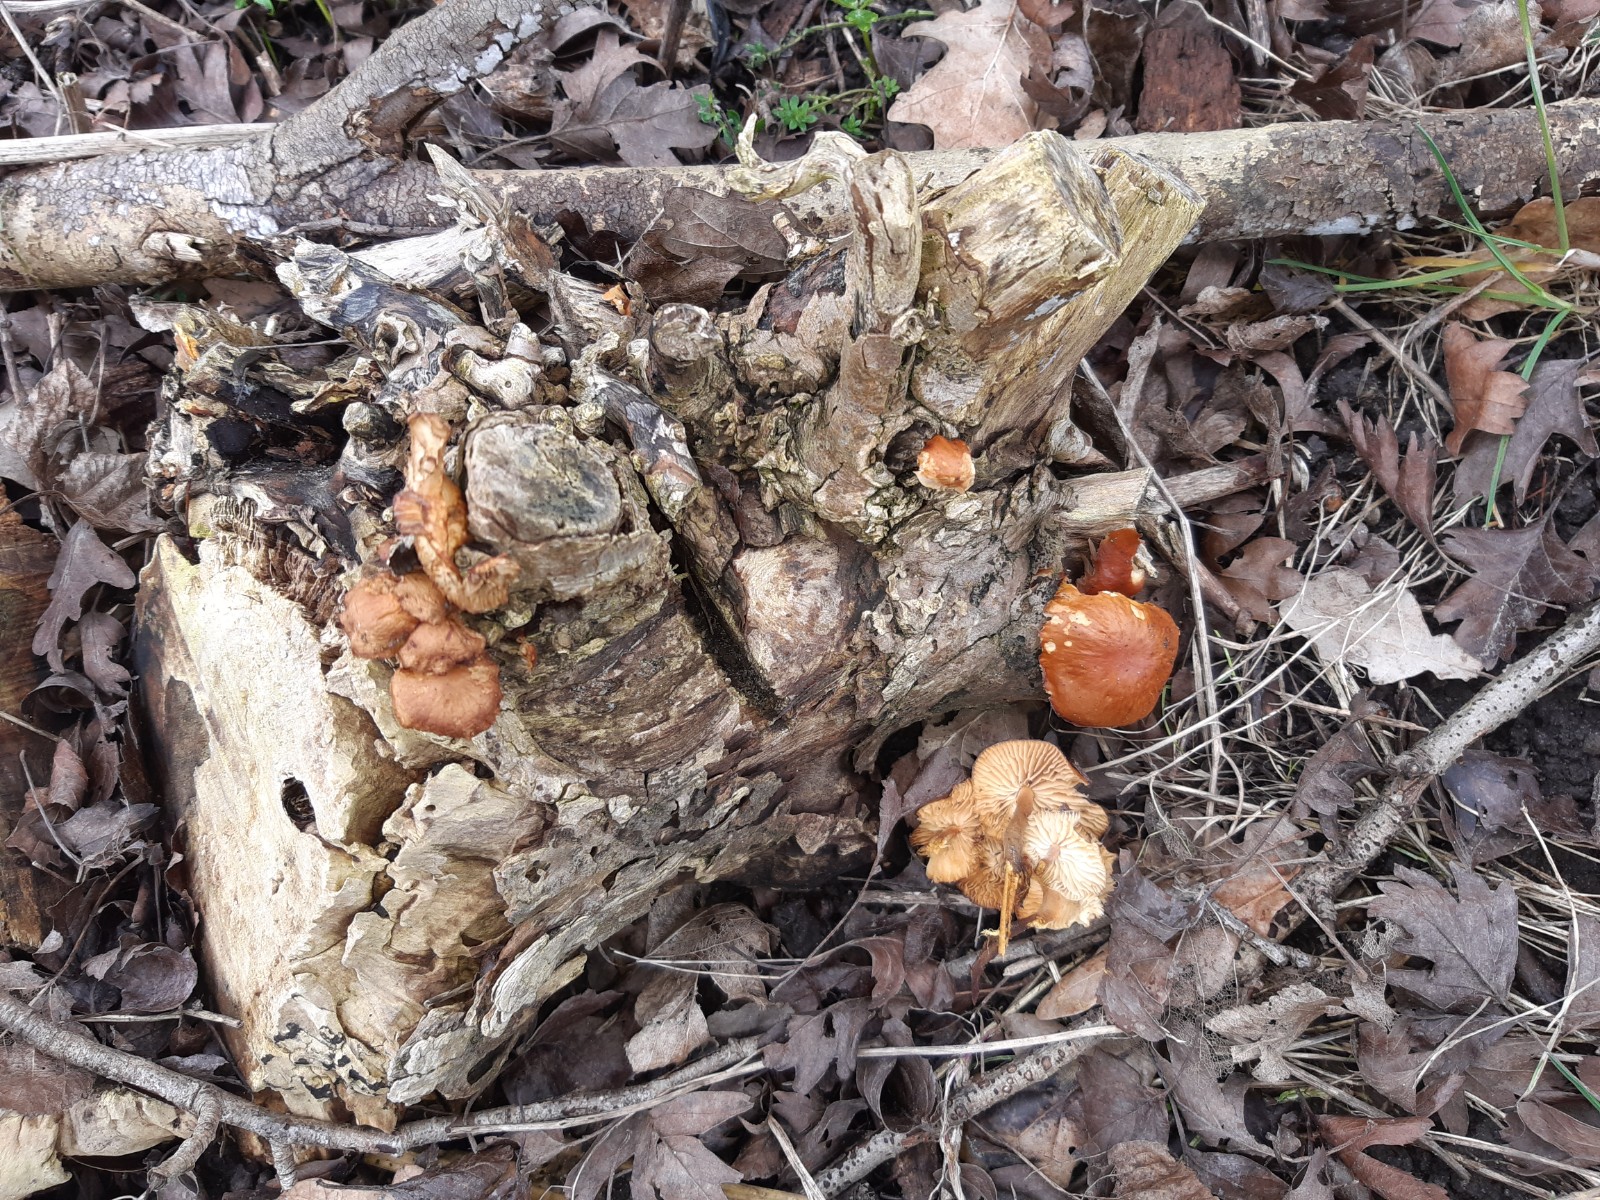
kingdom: Fungi
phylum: Basidiomycota
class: Agaricomycetes
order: Agaricales
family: Physalacriaceae
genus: Flammulina
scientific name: Flammulina
